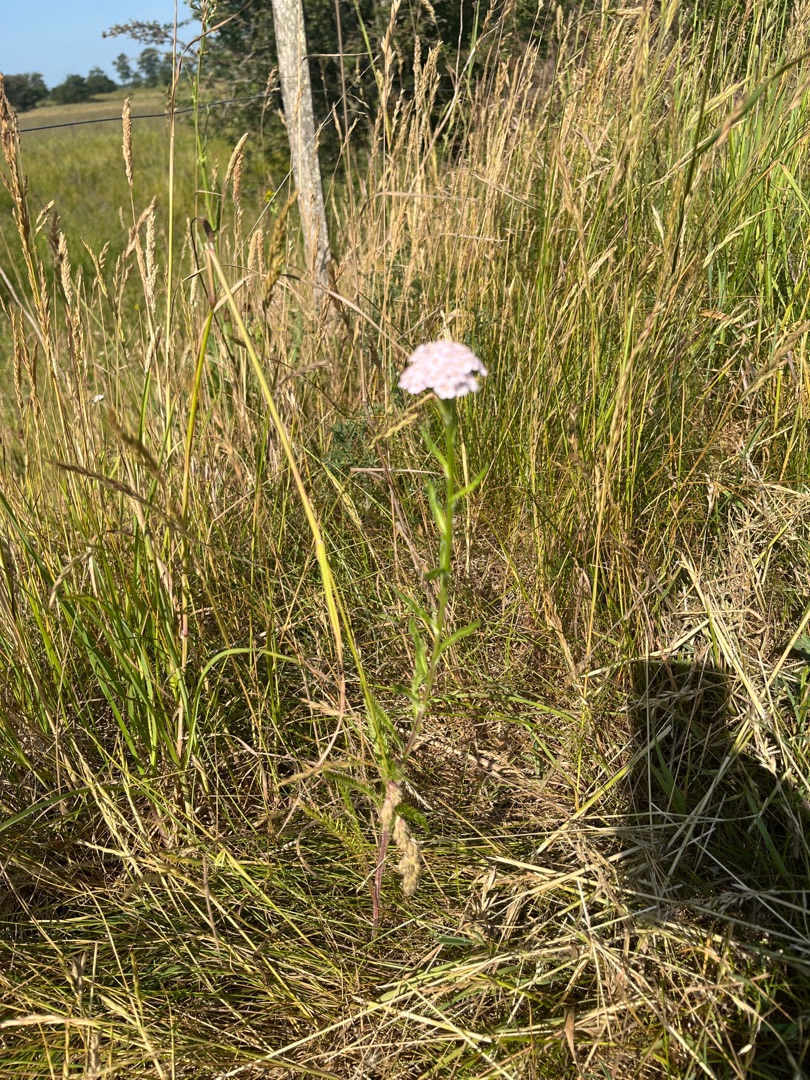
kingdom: Plantae
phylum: Tracheophyta
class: Magnoliopsida
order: Asterales
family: Asteraceae
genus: Achillea
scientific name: Achillea millefolium
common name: Almindelig røllike
